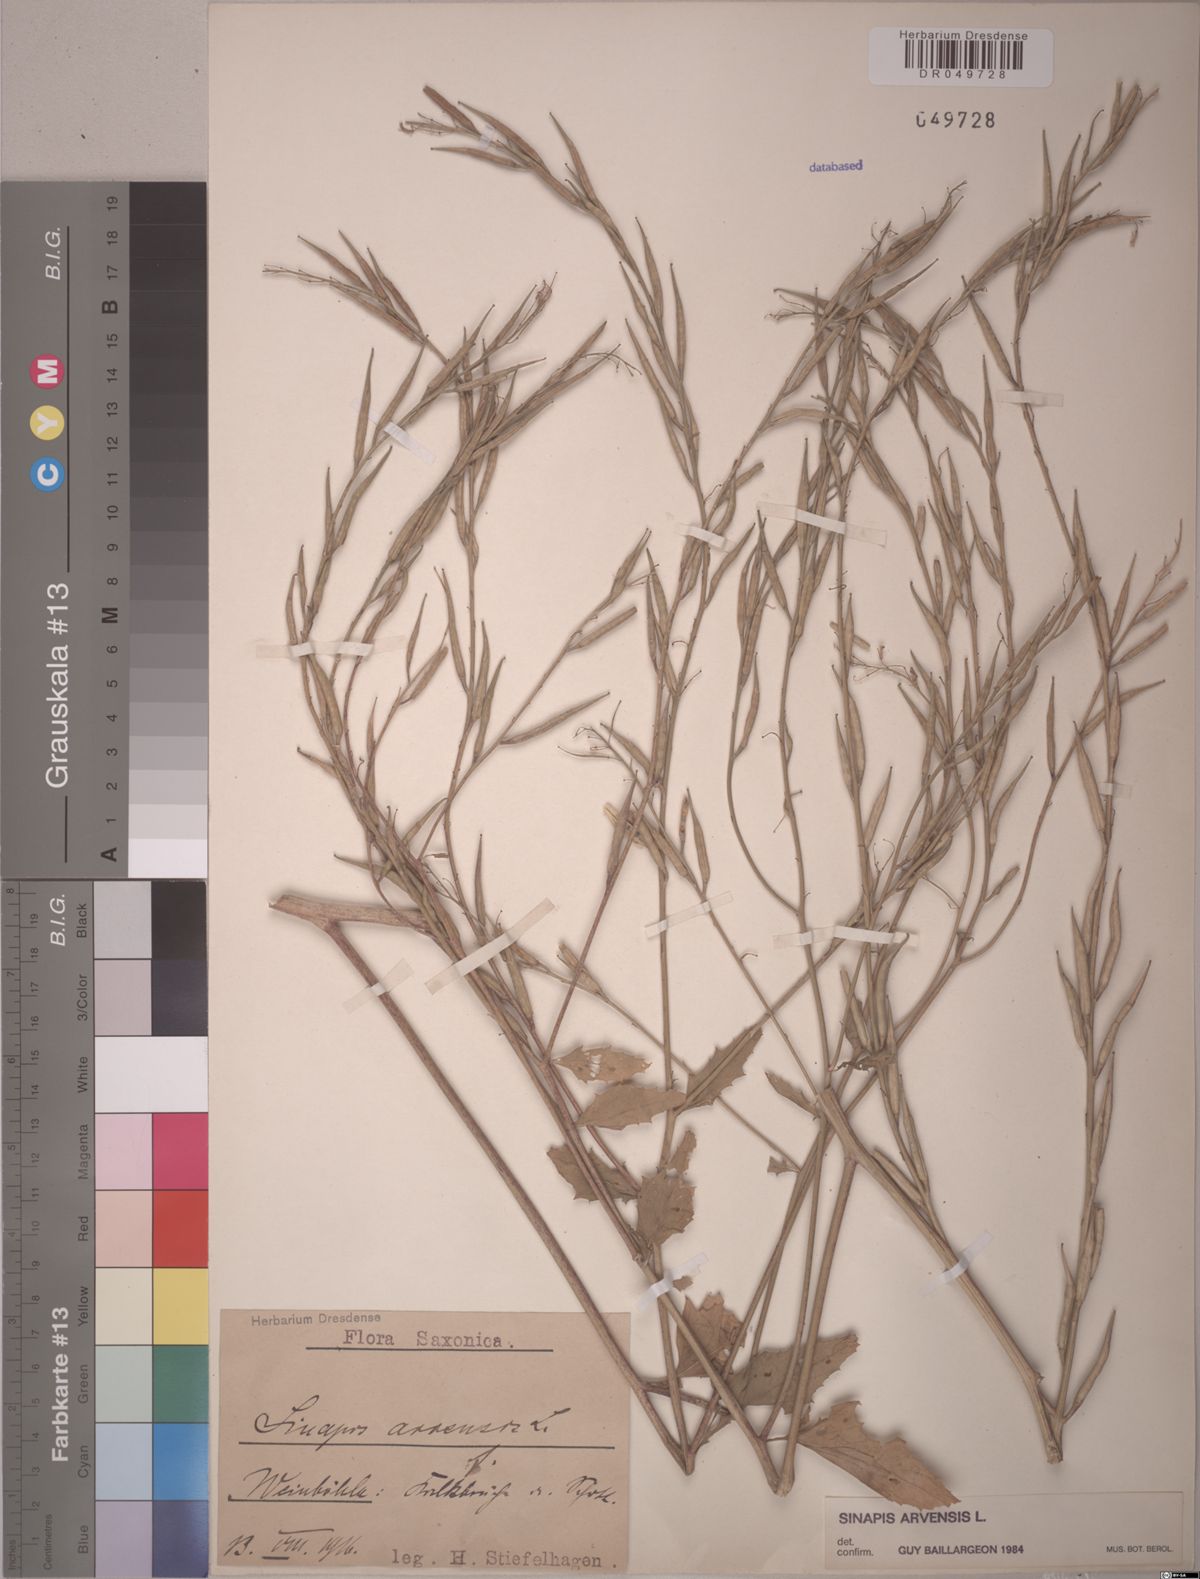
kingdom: Plantae
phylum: Tracheophyta
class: Magnoliopsida
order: Brassicales
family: Brassicaceae
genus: Sinapis
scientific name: Sinapis arvensis
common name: Charlock
